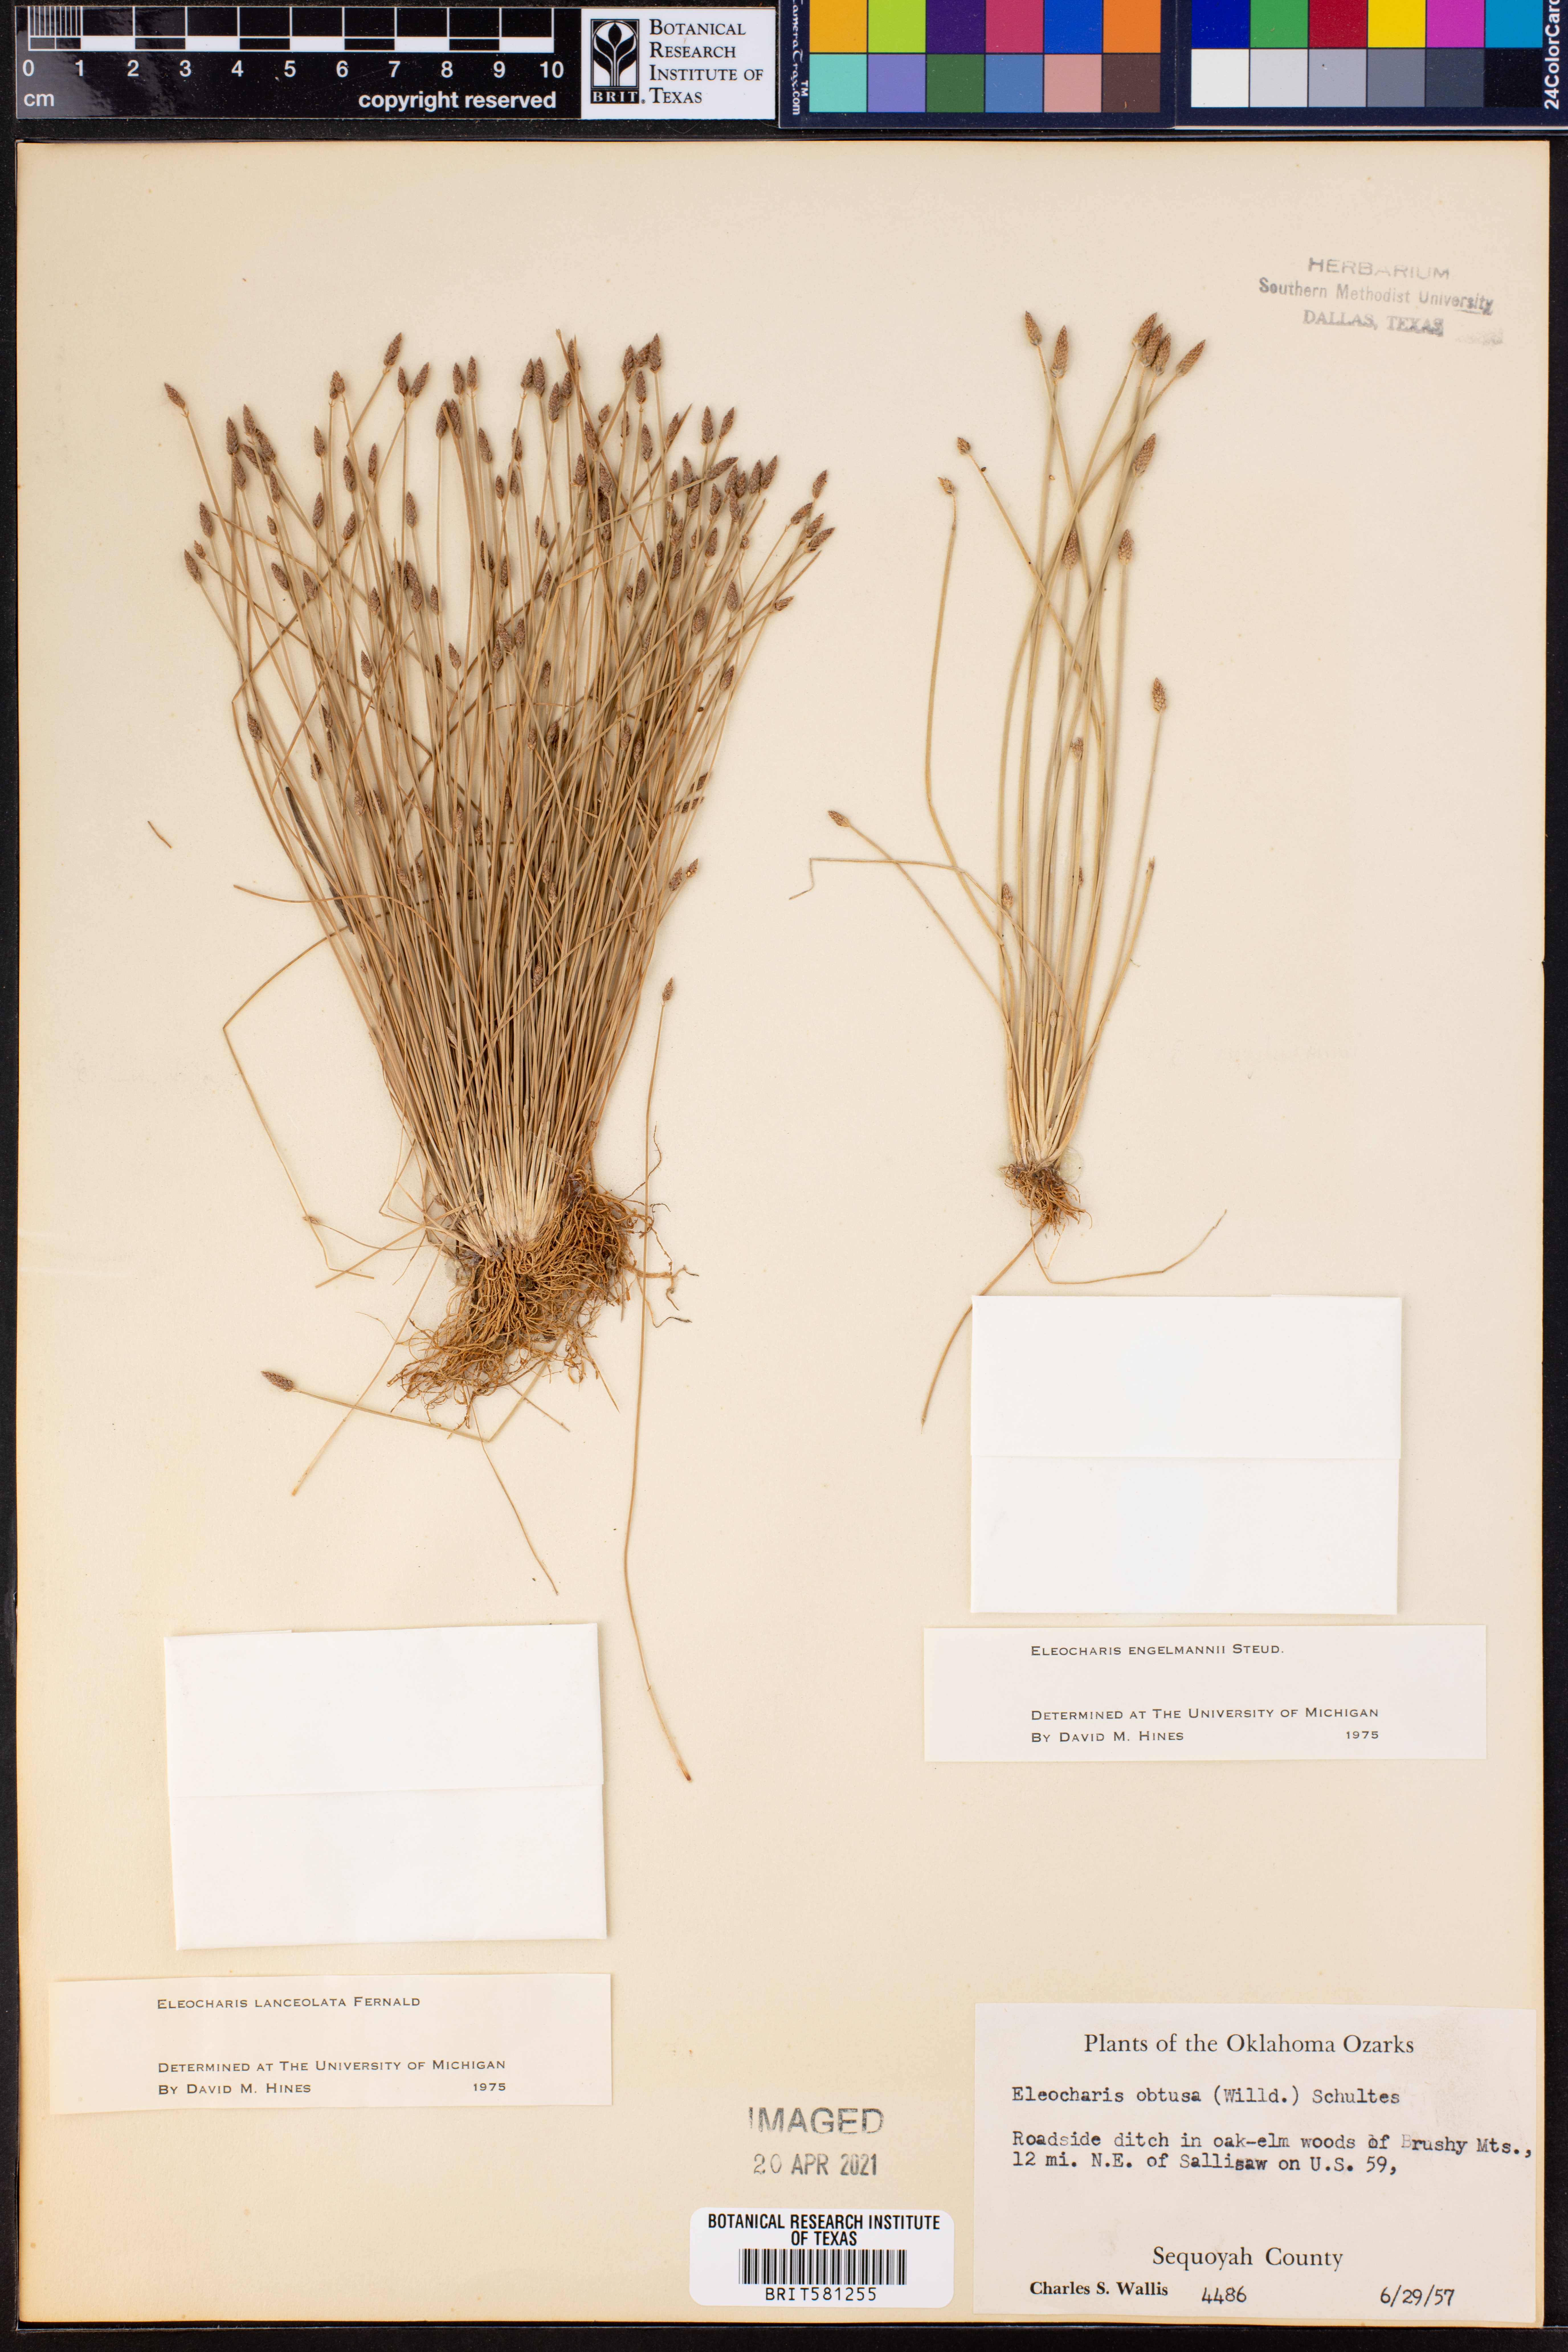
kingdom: Plantae
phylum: Tracheophyta
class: Liliopsida
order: Poales
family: Cyperaceae
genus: Eleocharis
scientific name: Eleocharis lanceolata
